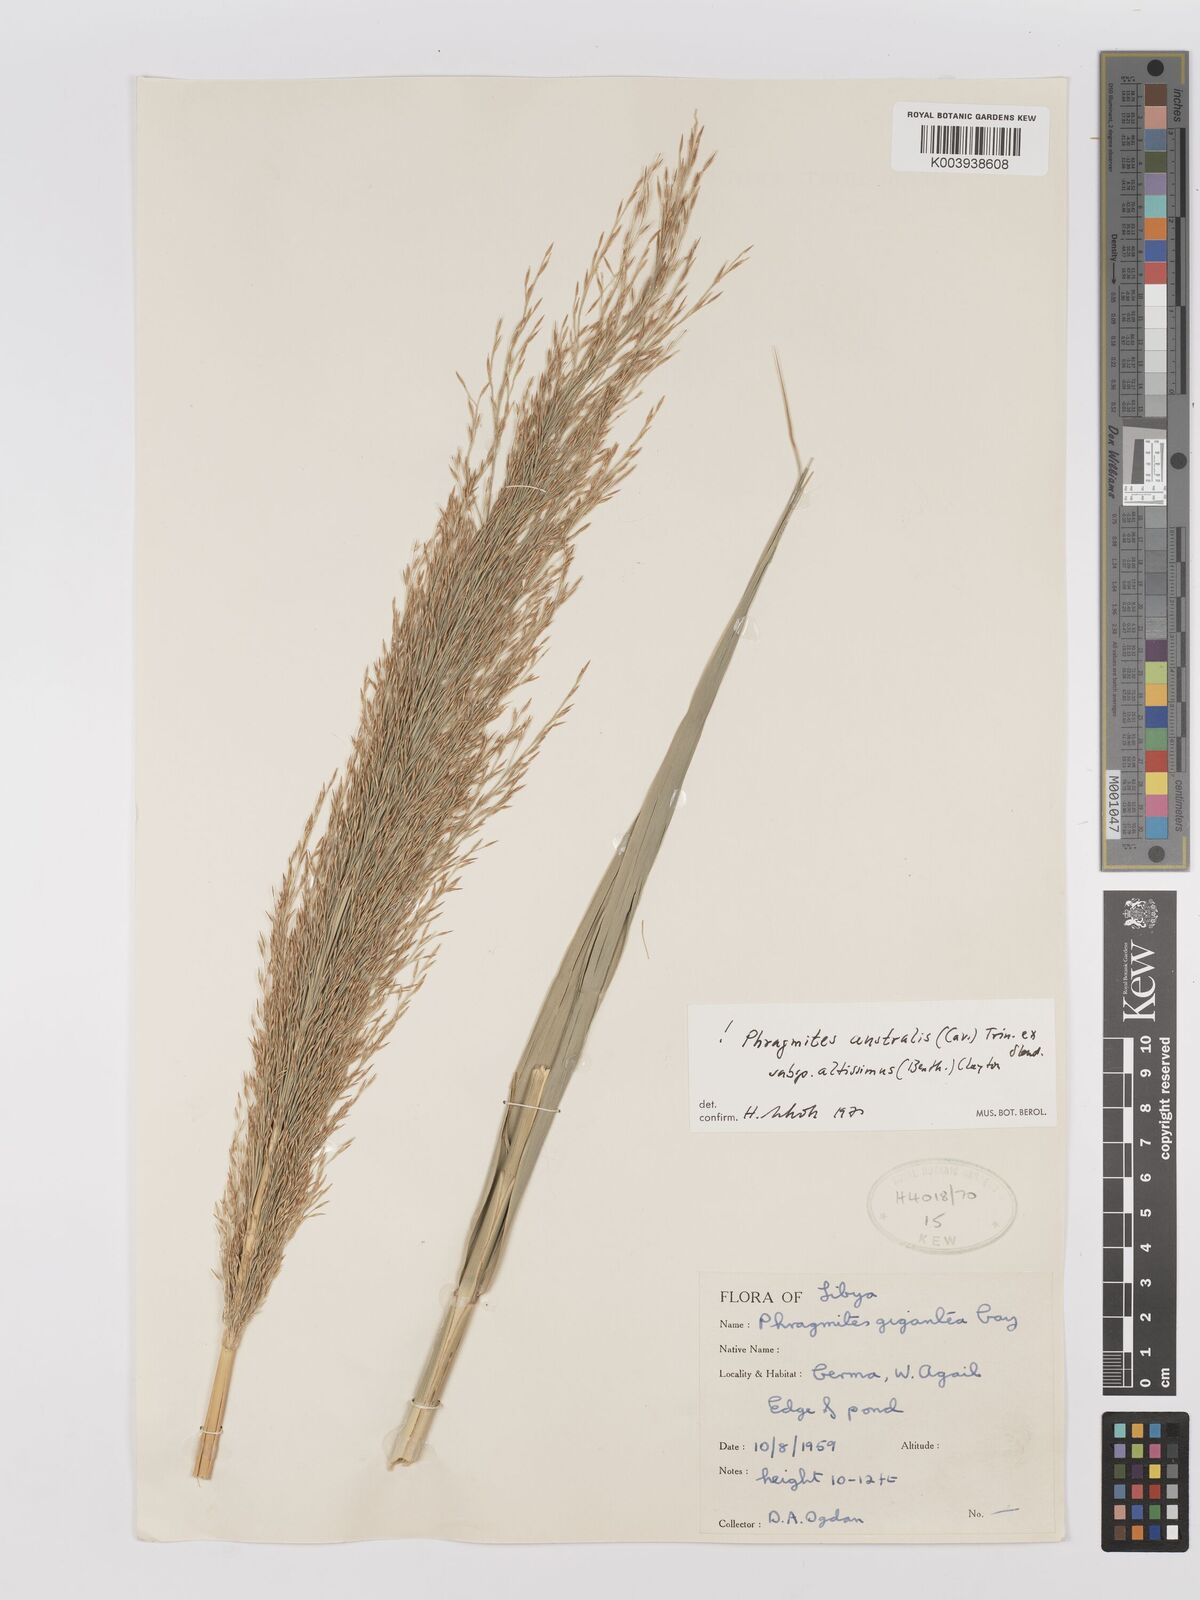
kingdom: Plantae
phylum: Tracheophyta
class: Liliopsida
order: Poales
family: Poaceae
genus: Phragmites
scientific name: Phragmites australis
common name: Common reed
